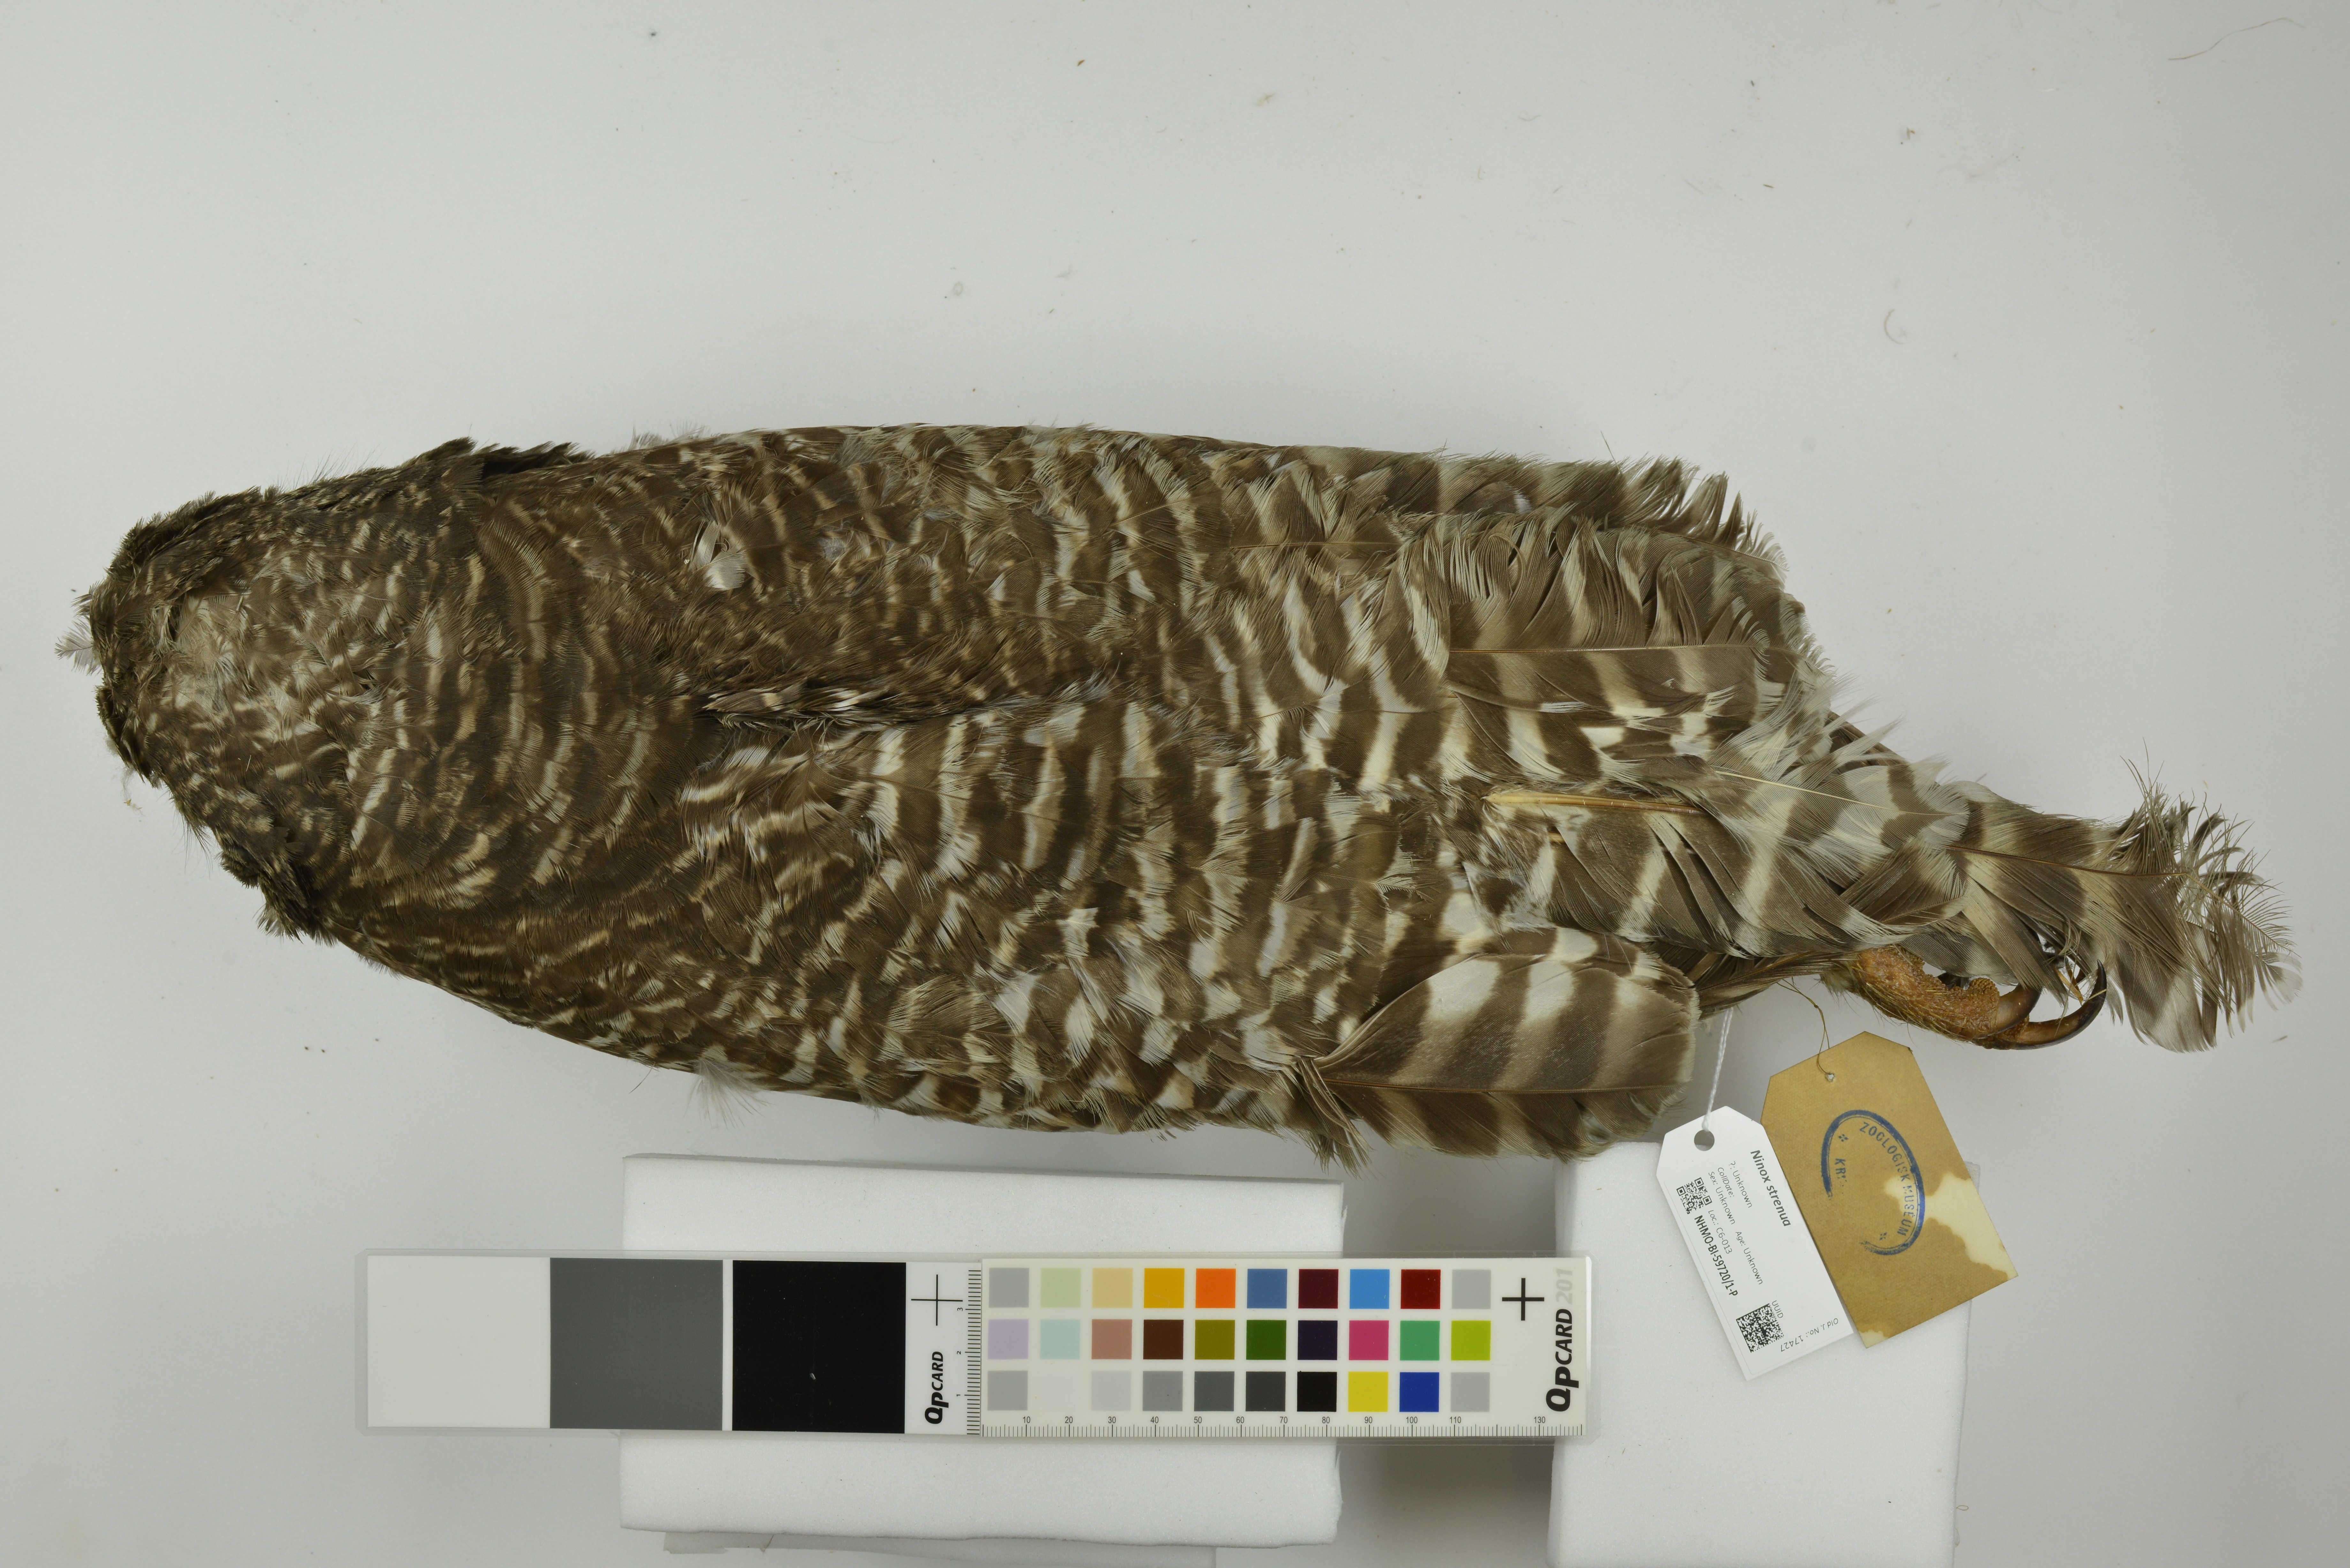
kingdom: Animalia
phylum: Chordata
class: Aves
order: Strigiformes
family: Strigidae
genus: Ninox
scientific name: Ninox strenua
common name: Powerful owl
